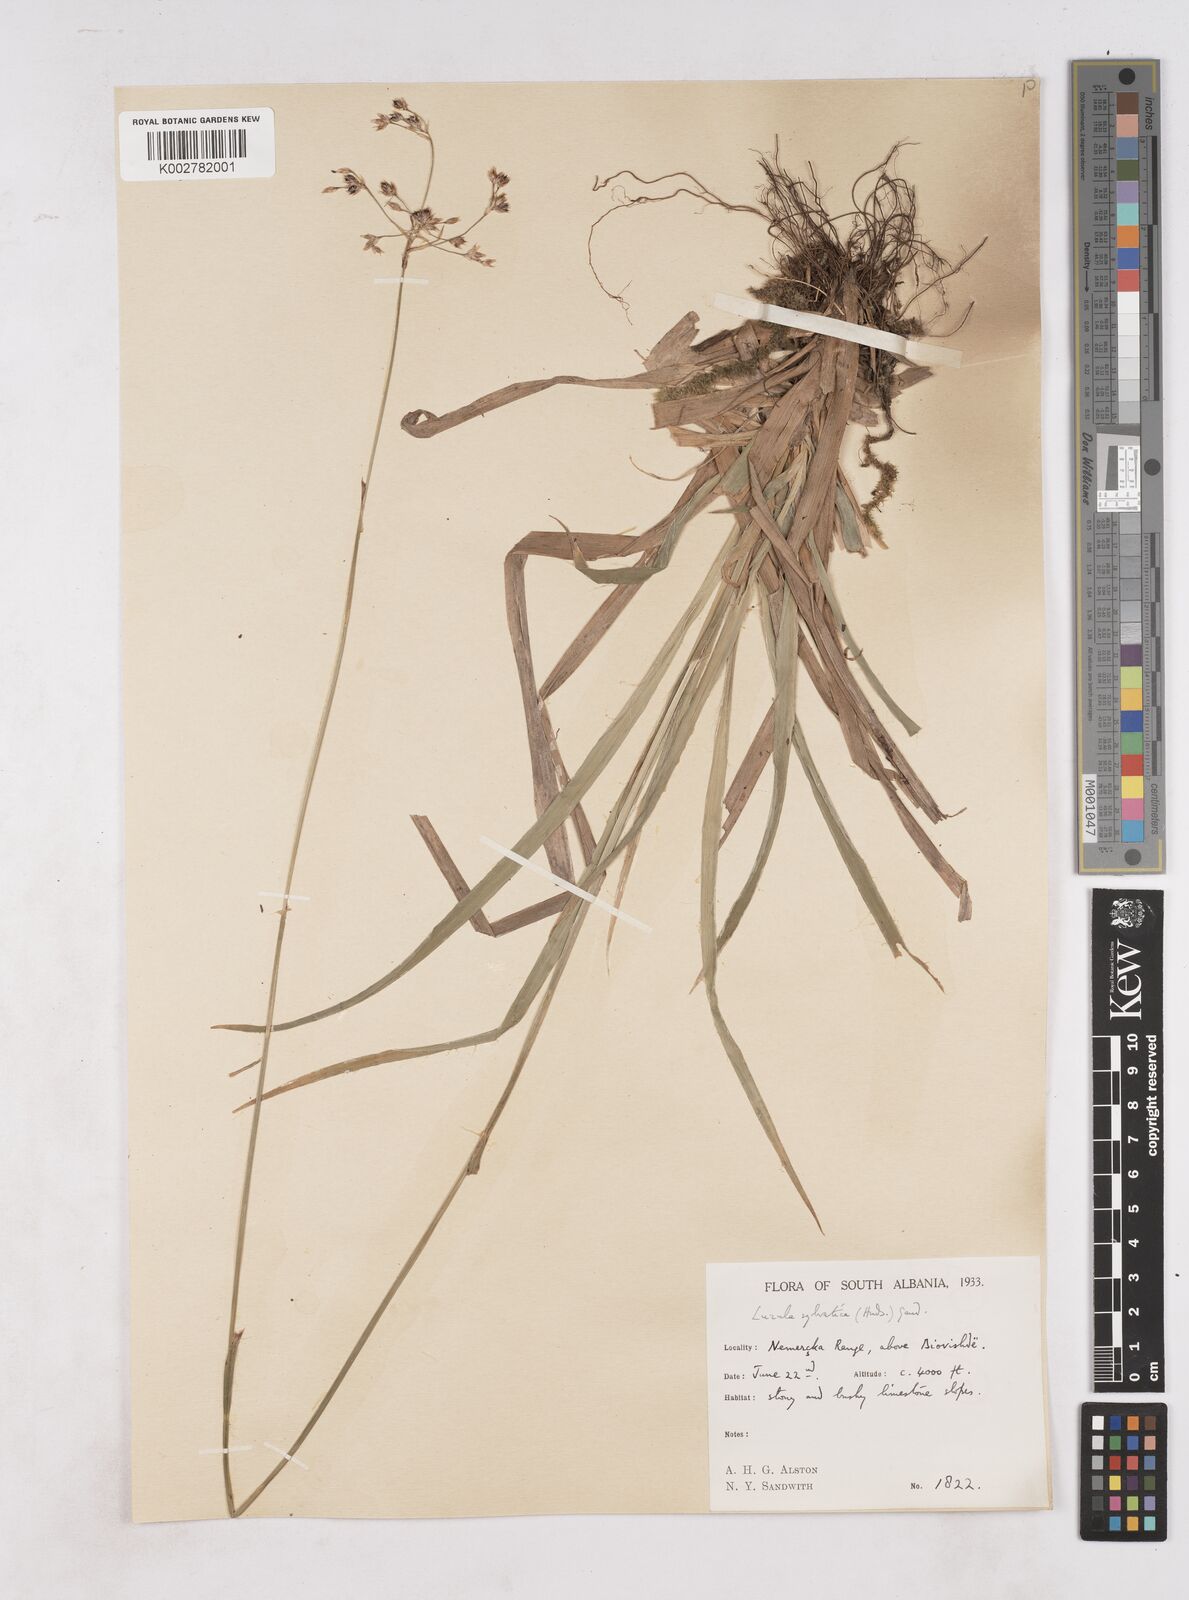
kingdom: Plantae
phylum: Tracheophyta
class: Liliopsida
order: Poales
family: Juncaceae
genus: Luzula
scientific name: Luzula sylvatica
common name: Great wood-rush
